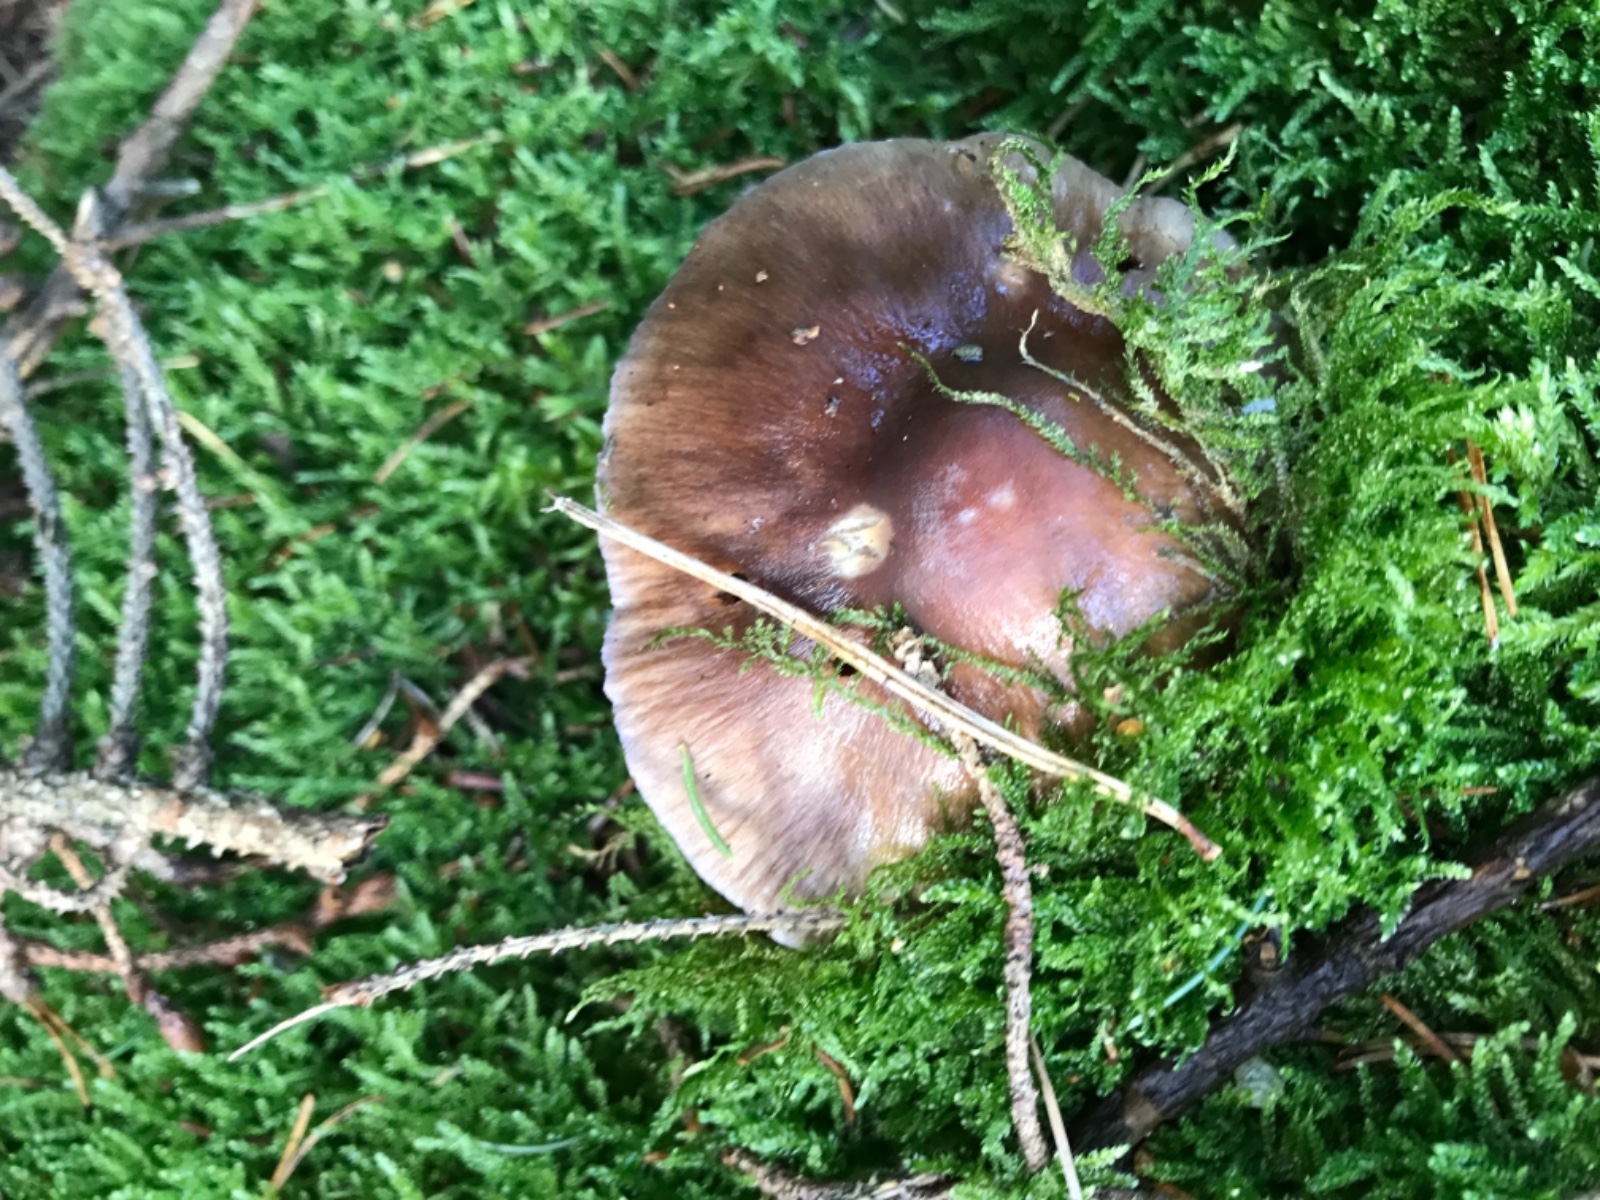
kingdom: Fungi
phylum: Basidiomycota
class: Agaricomycetes
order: Agaricales
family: Cortinariaceae
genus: Cortinarius
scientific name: Cortinarius elatior
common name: høj slørhat
